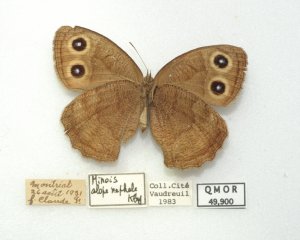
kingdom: Animalia
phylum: Arthropoda
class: Insecta
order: Lepidoptera
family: Nymphalidae
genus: Cercyonis
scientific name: Cercyonis pegala
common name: Common Wood-Nymph
